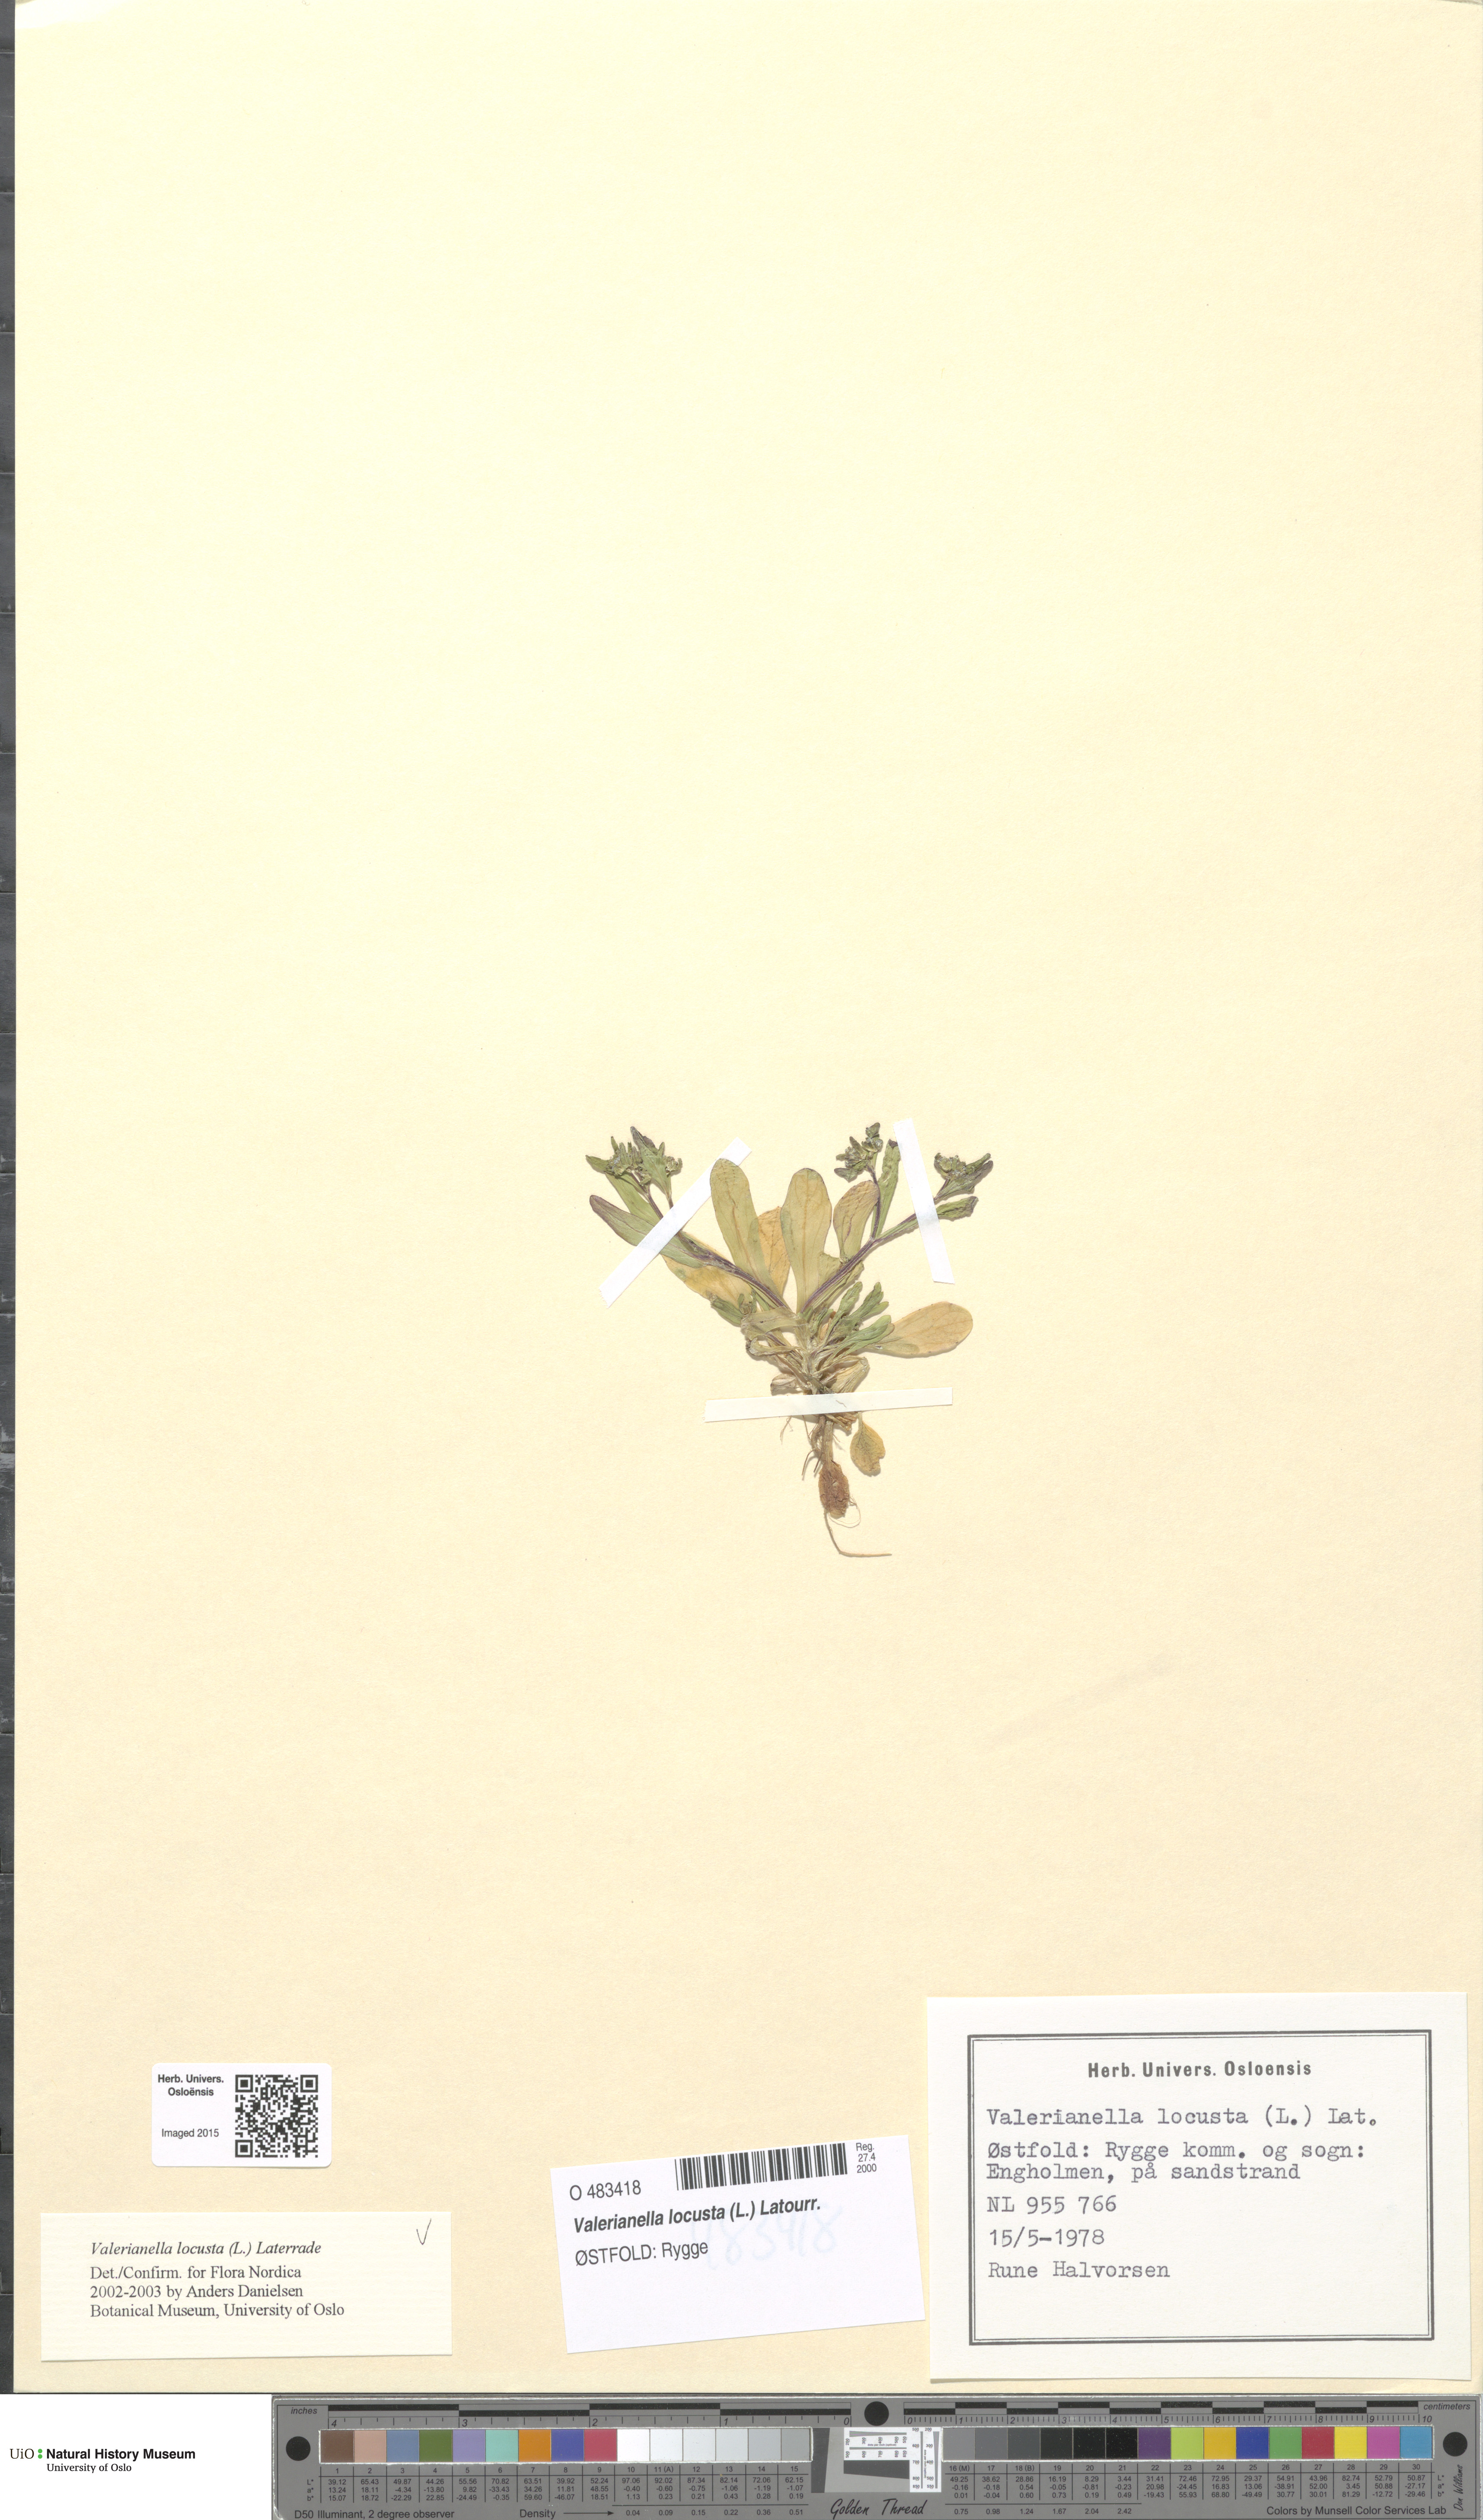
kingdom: Plantae
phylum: Tracheophyta
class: Magnoliopsida
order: Dipsacales
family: Caprifoliaceae
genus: Valerianella
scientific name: Valerianella locusta
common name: Common cornsalad
